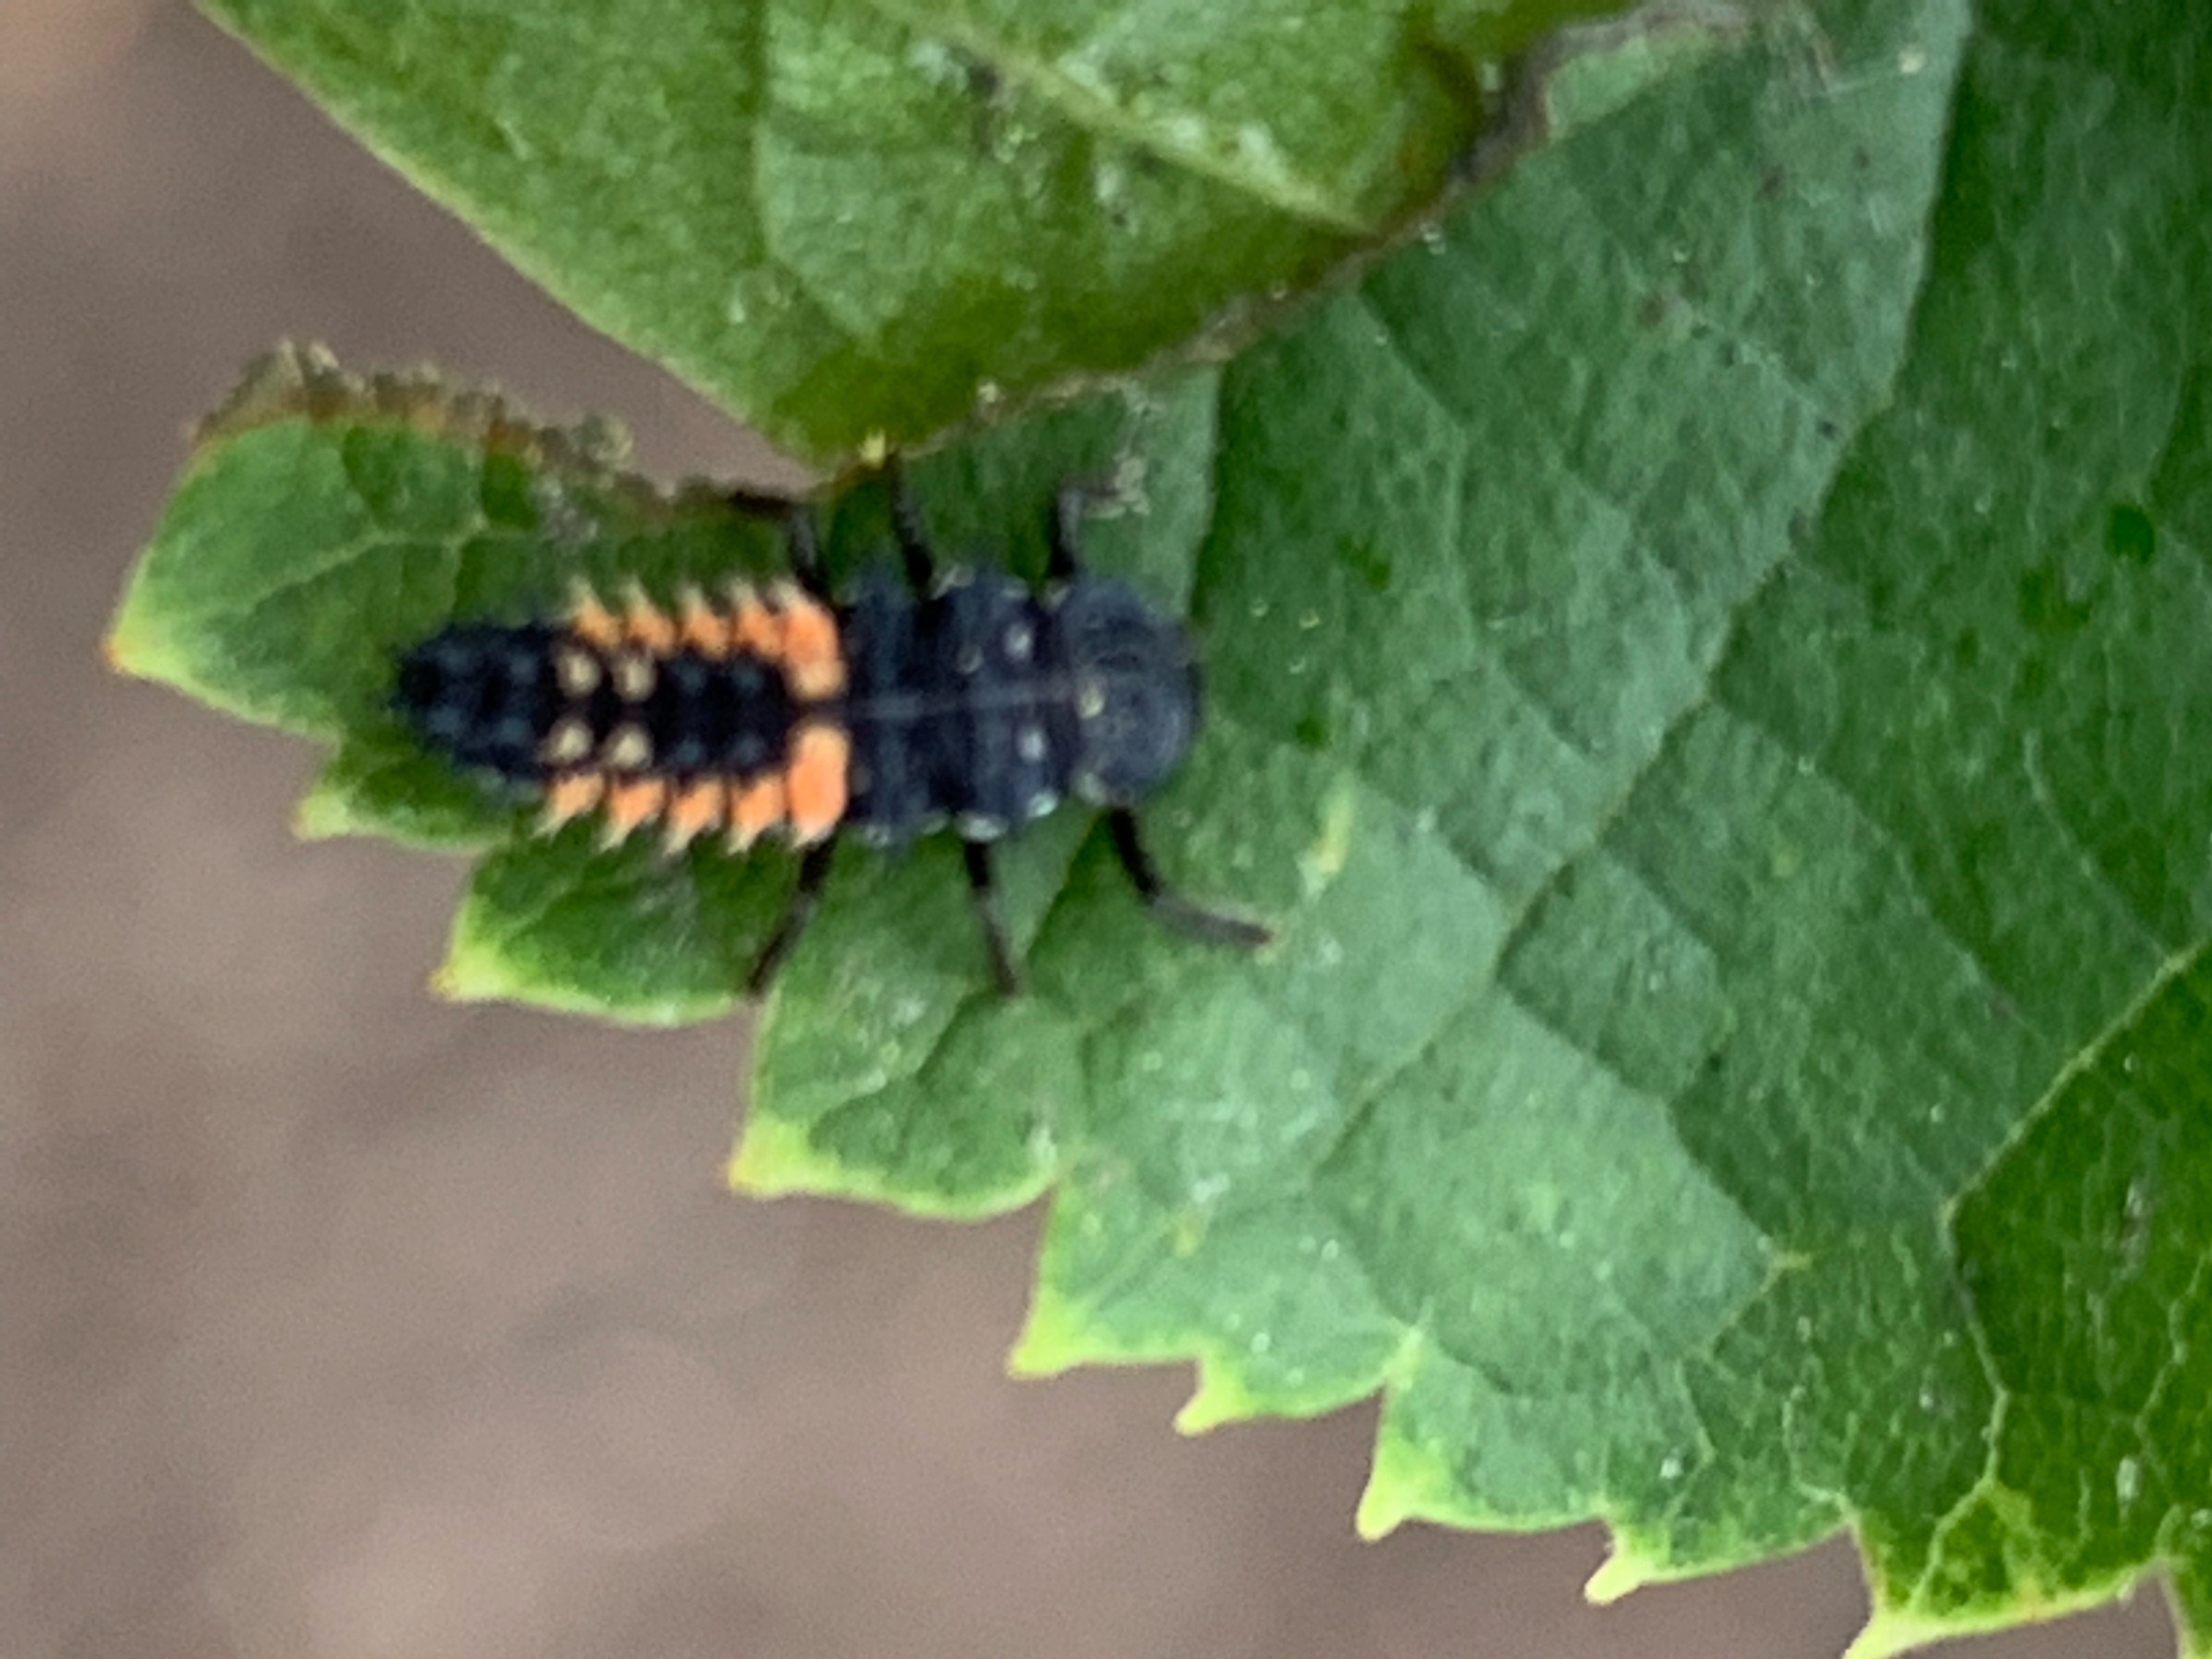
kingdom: Animalia
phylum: Arthropoda
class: Insecta
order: Coleoptera
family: Coccinellidae
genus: Harmonia
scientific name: Harmonia axyridis
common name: Harlekinmariehøne
